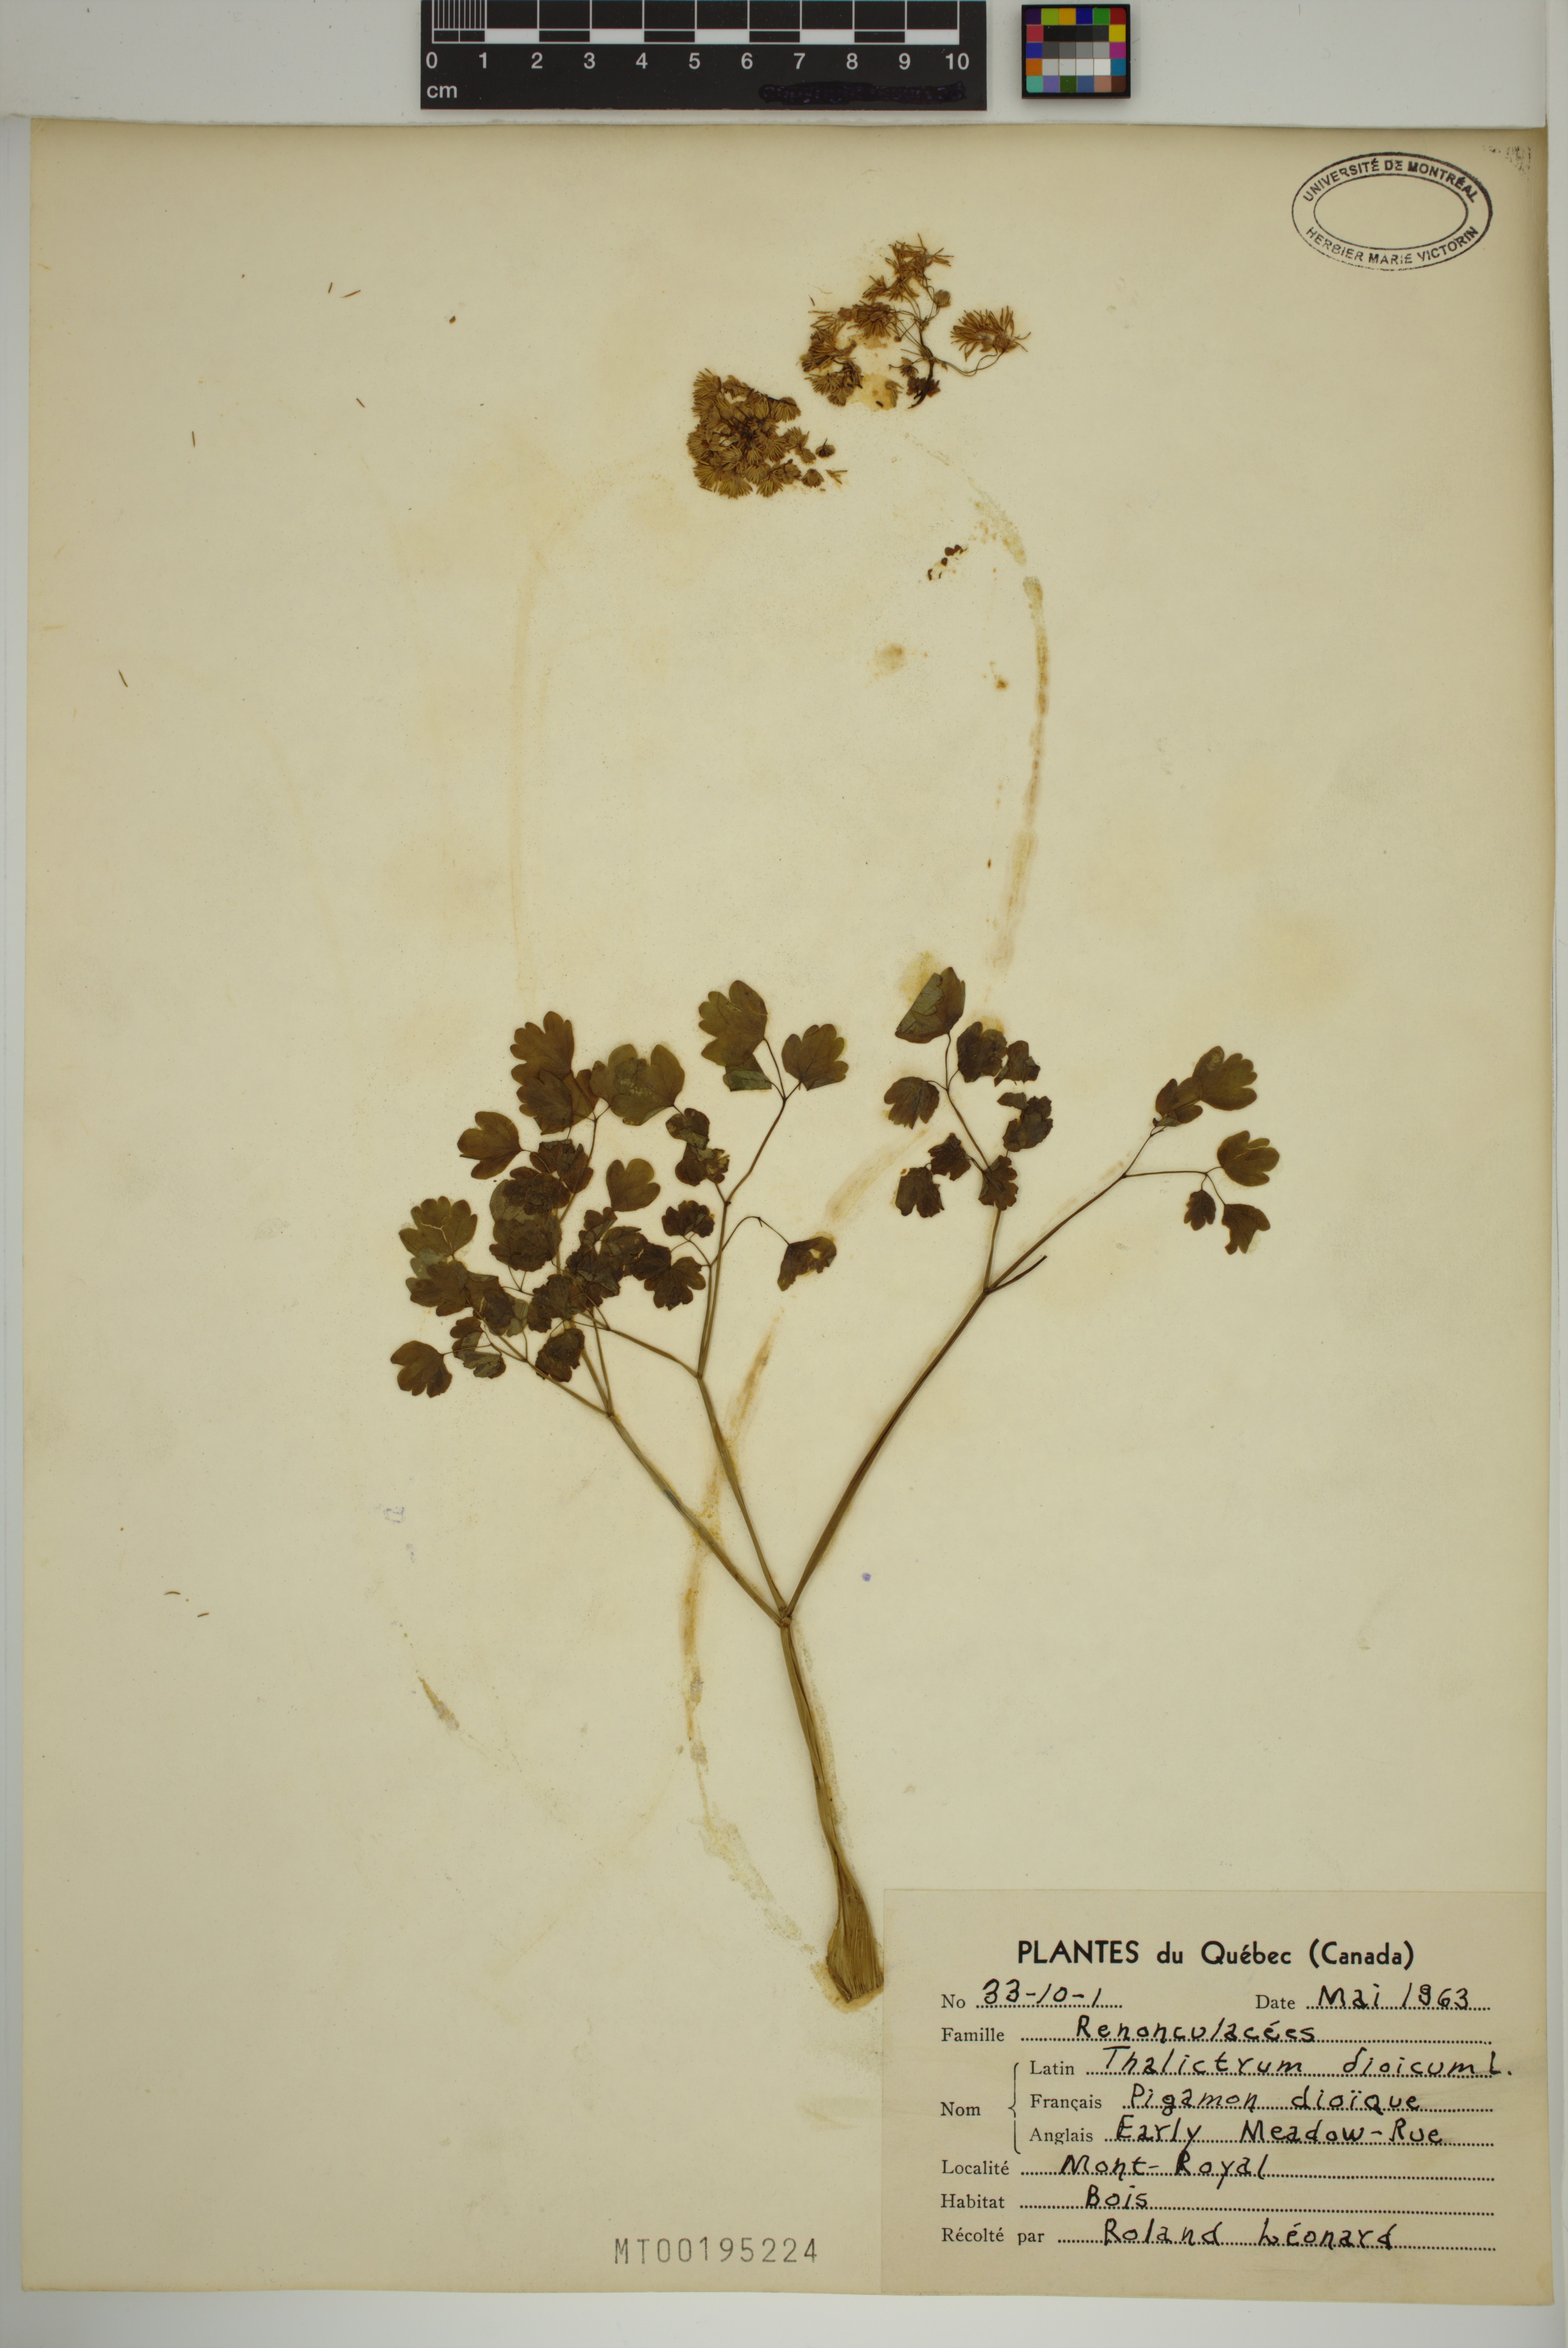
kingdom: Plantae
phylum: Tracheophyta
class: Magnoliopsida
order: Ranunculales
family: Ranunculaceae
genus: Thalictrum
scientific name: Thalictrum dioicum
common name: Early meadow-rue
